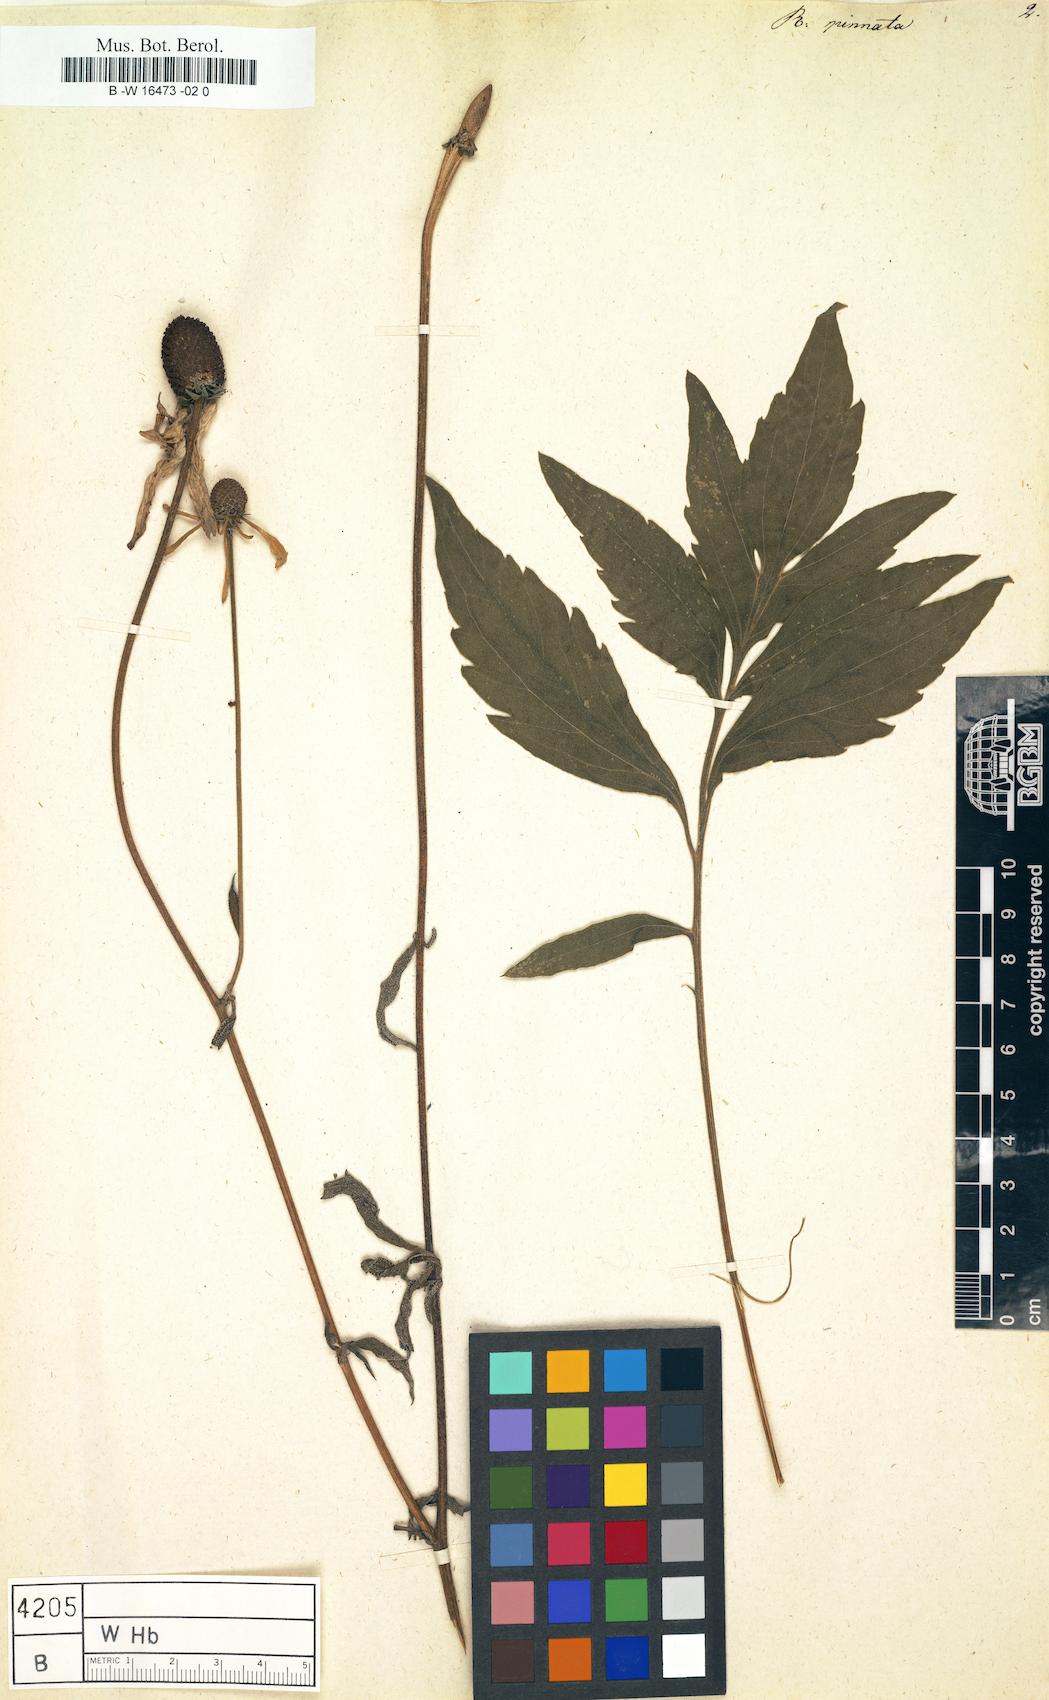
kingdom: Plantae
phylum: Tracheophyta
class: Magnoliopsida
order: Asterales
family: Asteraceae
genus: Ratibida
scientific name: Ratibida pinnata
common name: Drooping prairie-coneflower
